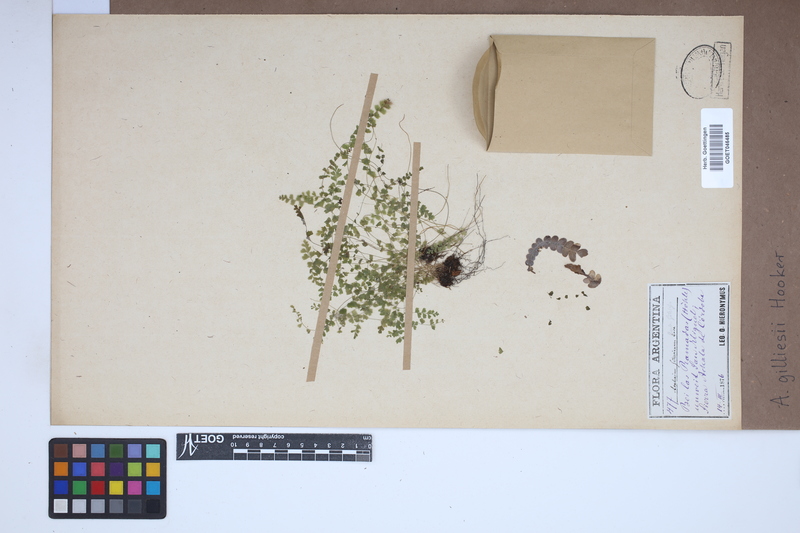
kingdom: Plantae
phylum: Tracheophyta
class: Polypodiopsida
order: Polypodiales
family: Aspleniaceae
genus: Asplenium
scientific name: Asplenium gilliesii
